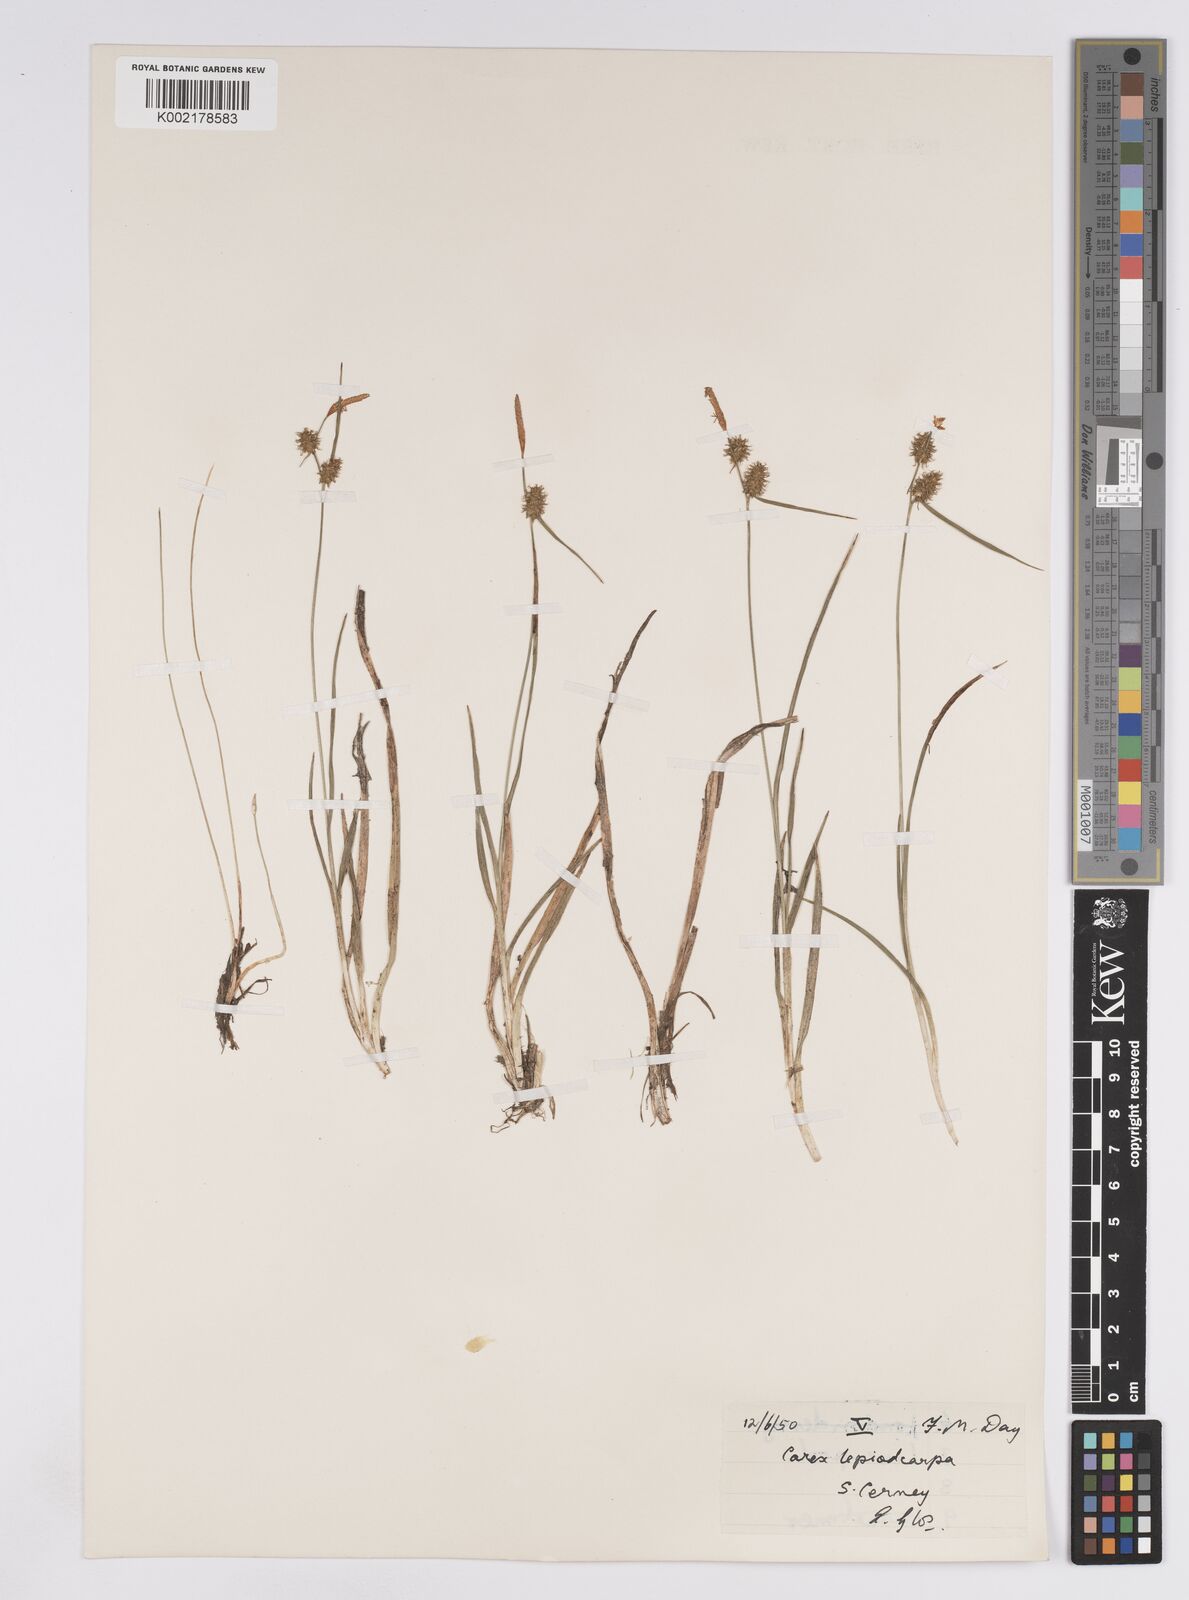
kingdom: Plantae
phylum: Tracheophyta
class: Liliopsida
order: Poales
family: Cyperaceae
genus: Carex
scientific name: Carex lepidocarpa
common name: Long-stalked yellow-sedge
